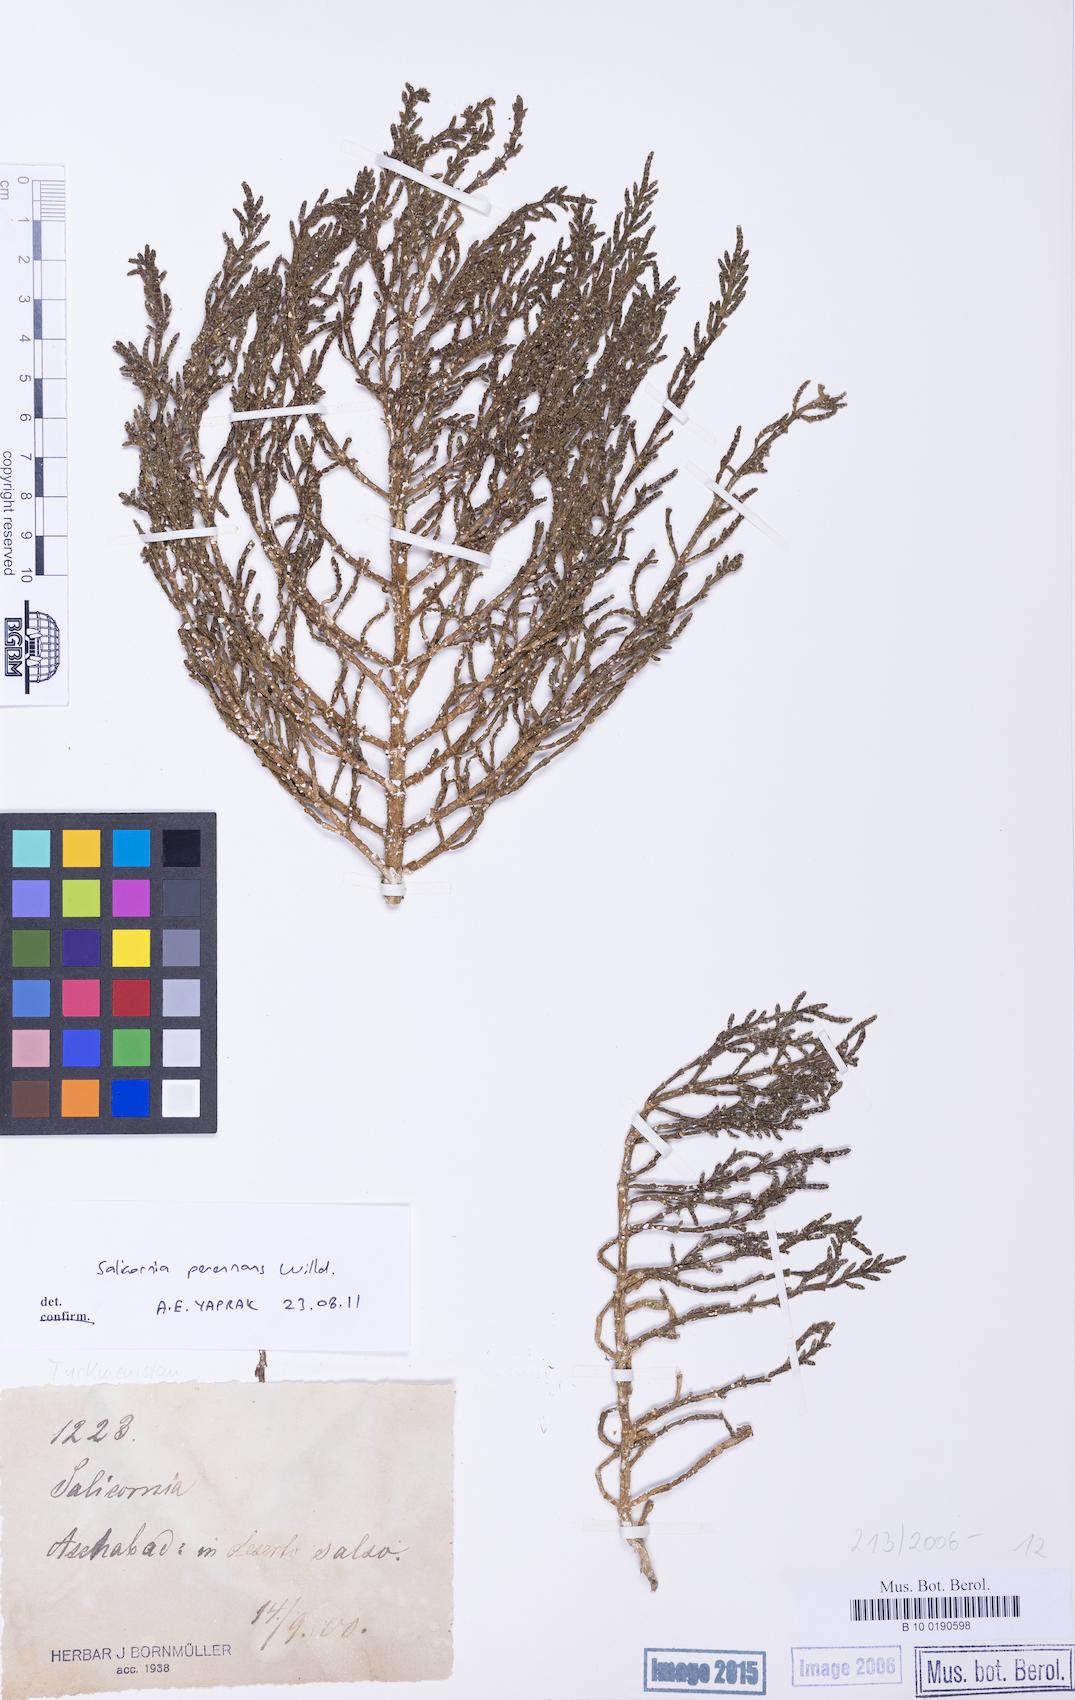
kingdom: Plantae
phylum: Tracheophyta
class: Magnoliopsida
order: Caryophyllales
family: Amaranthaceae
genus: Salicornia
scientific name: Salicornia perennans
